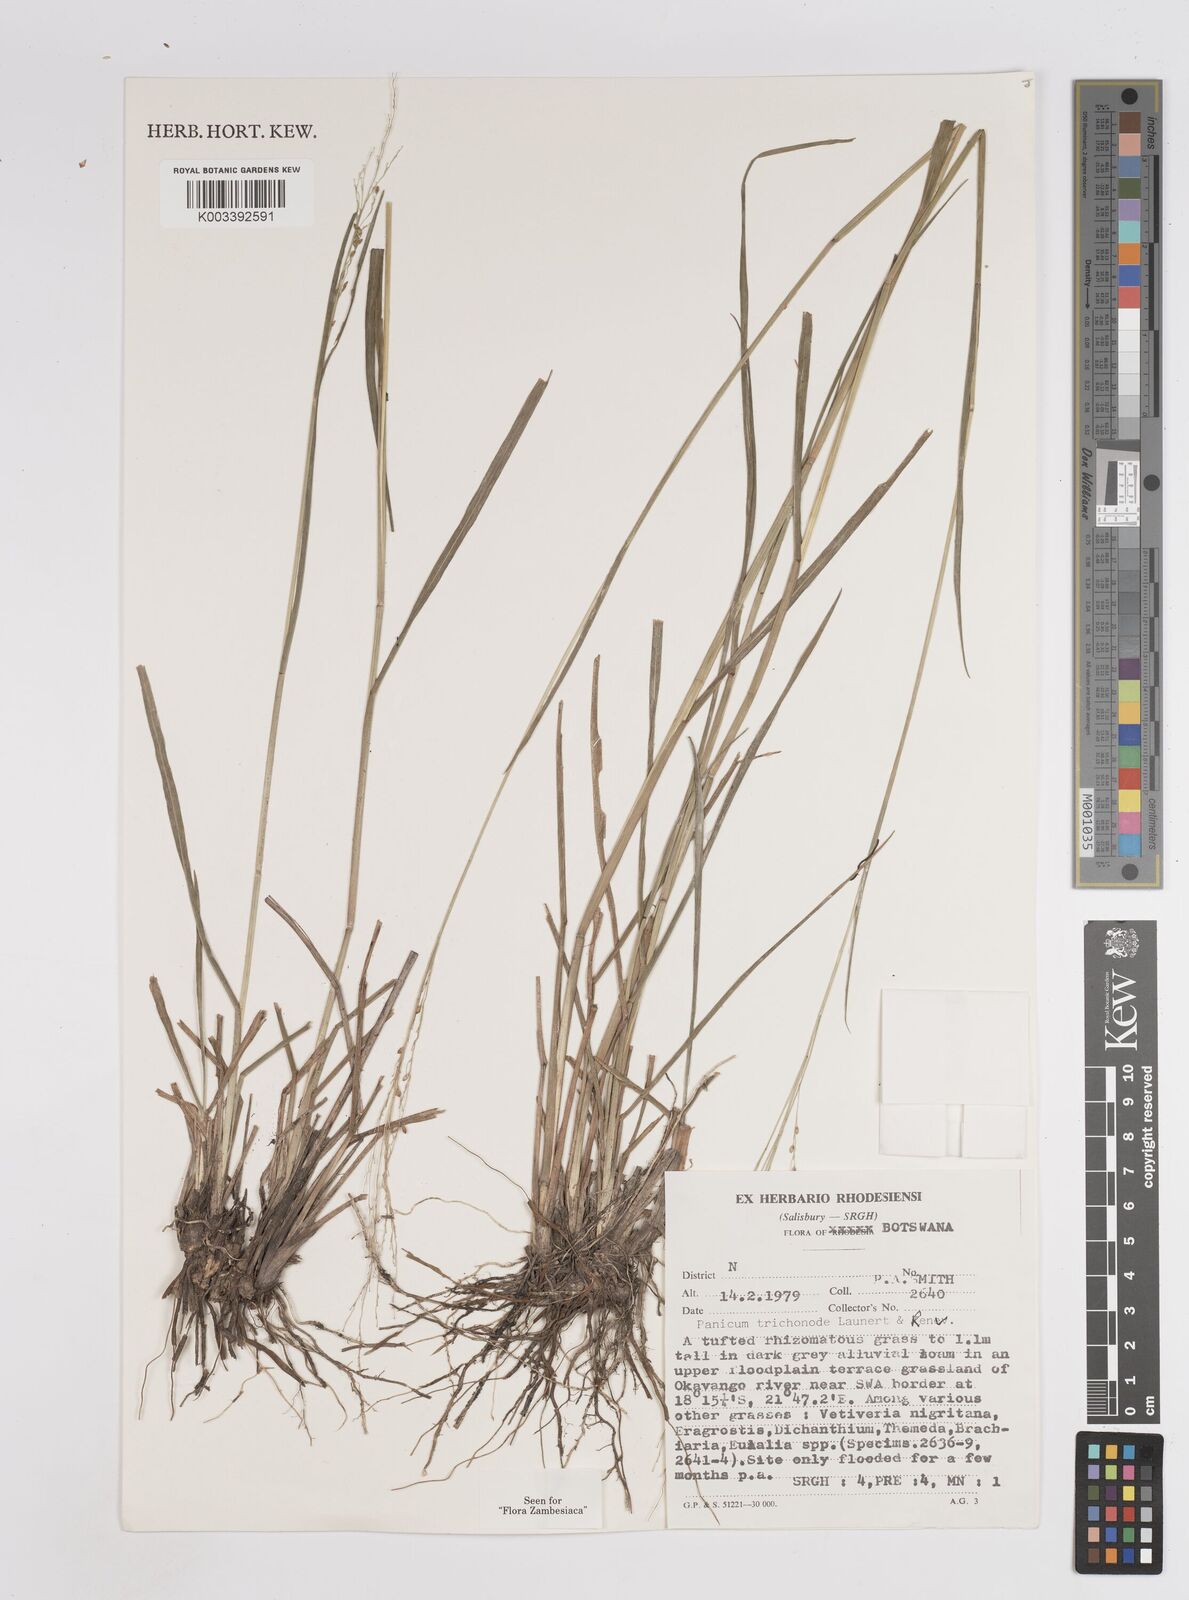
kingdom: Plantae
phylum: Tracheophyta
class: Liliopsida
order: Poales
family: Poaceae
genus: Panicum
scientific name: Panicum trichonode
